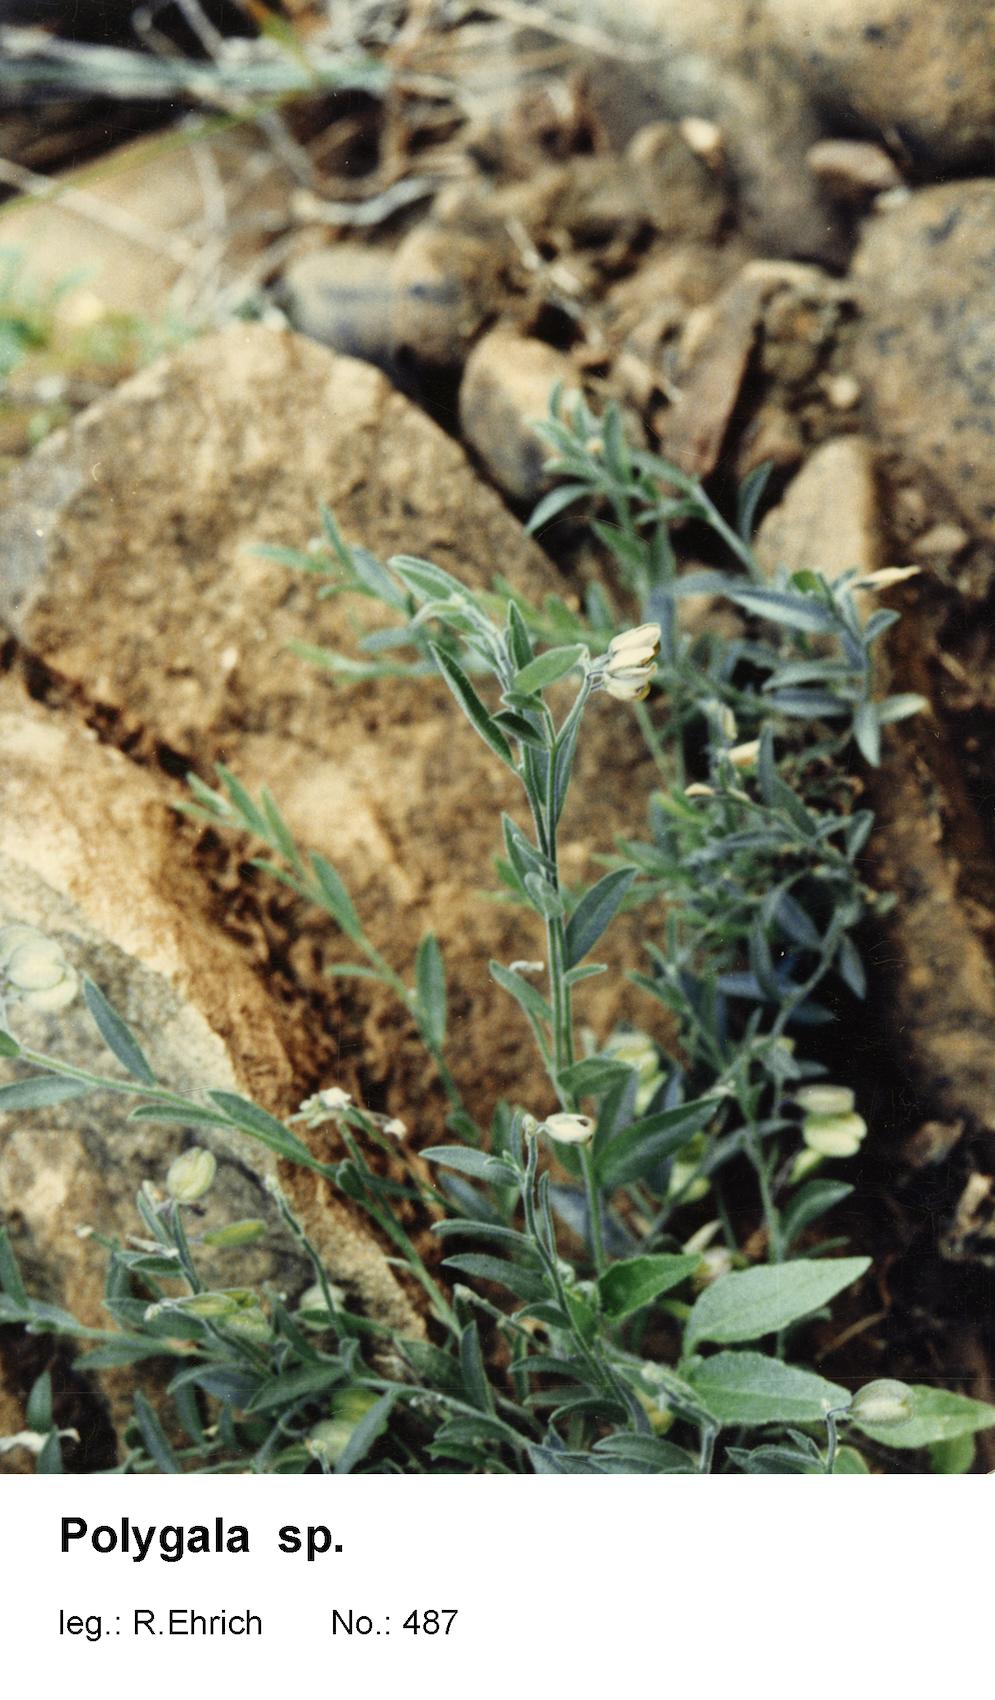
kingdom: Plantae
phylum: Tracheophyta
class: Magnoliopsida
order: Fabales
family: Polygalaceae
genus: Polygala
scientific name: Polygala
